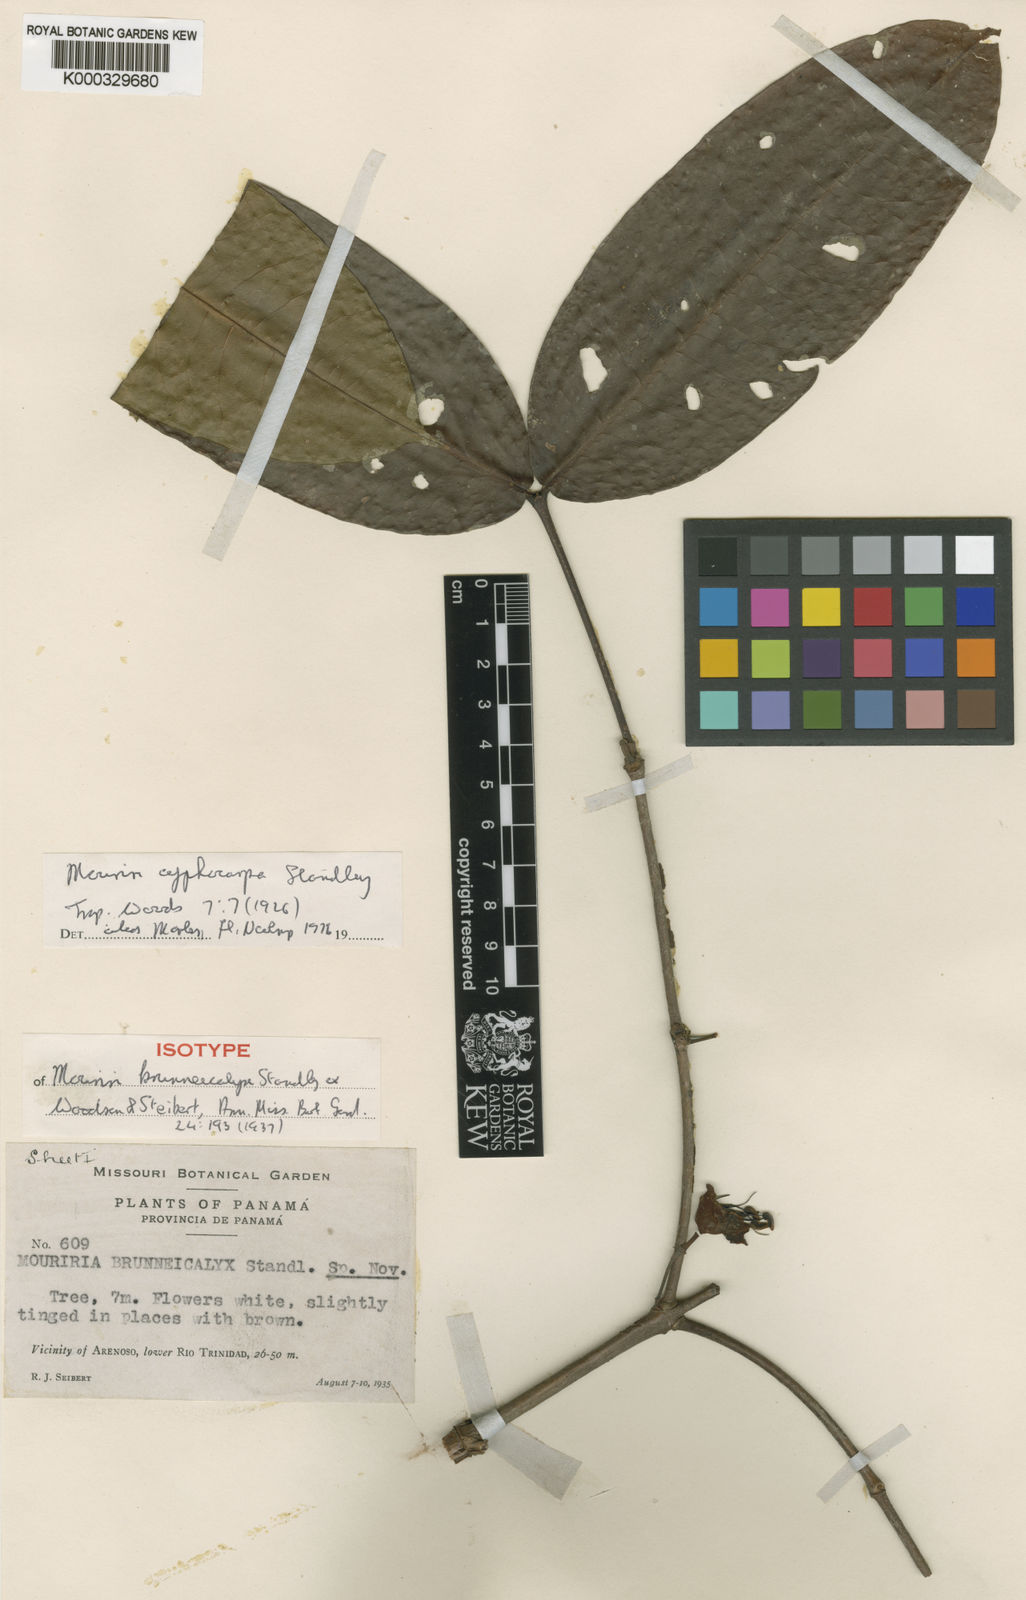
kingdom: Plantae
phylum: Tracheophyta
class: Magnoliopsida
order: Myrtales
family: Melastomataceae
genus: Mouriri
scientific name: Mouriri cyphocarpa
